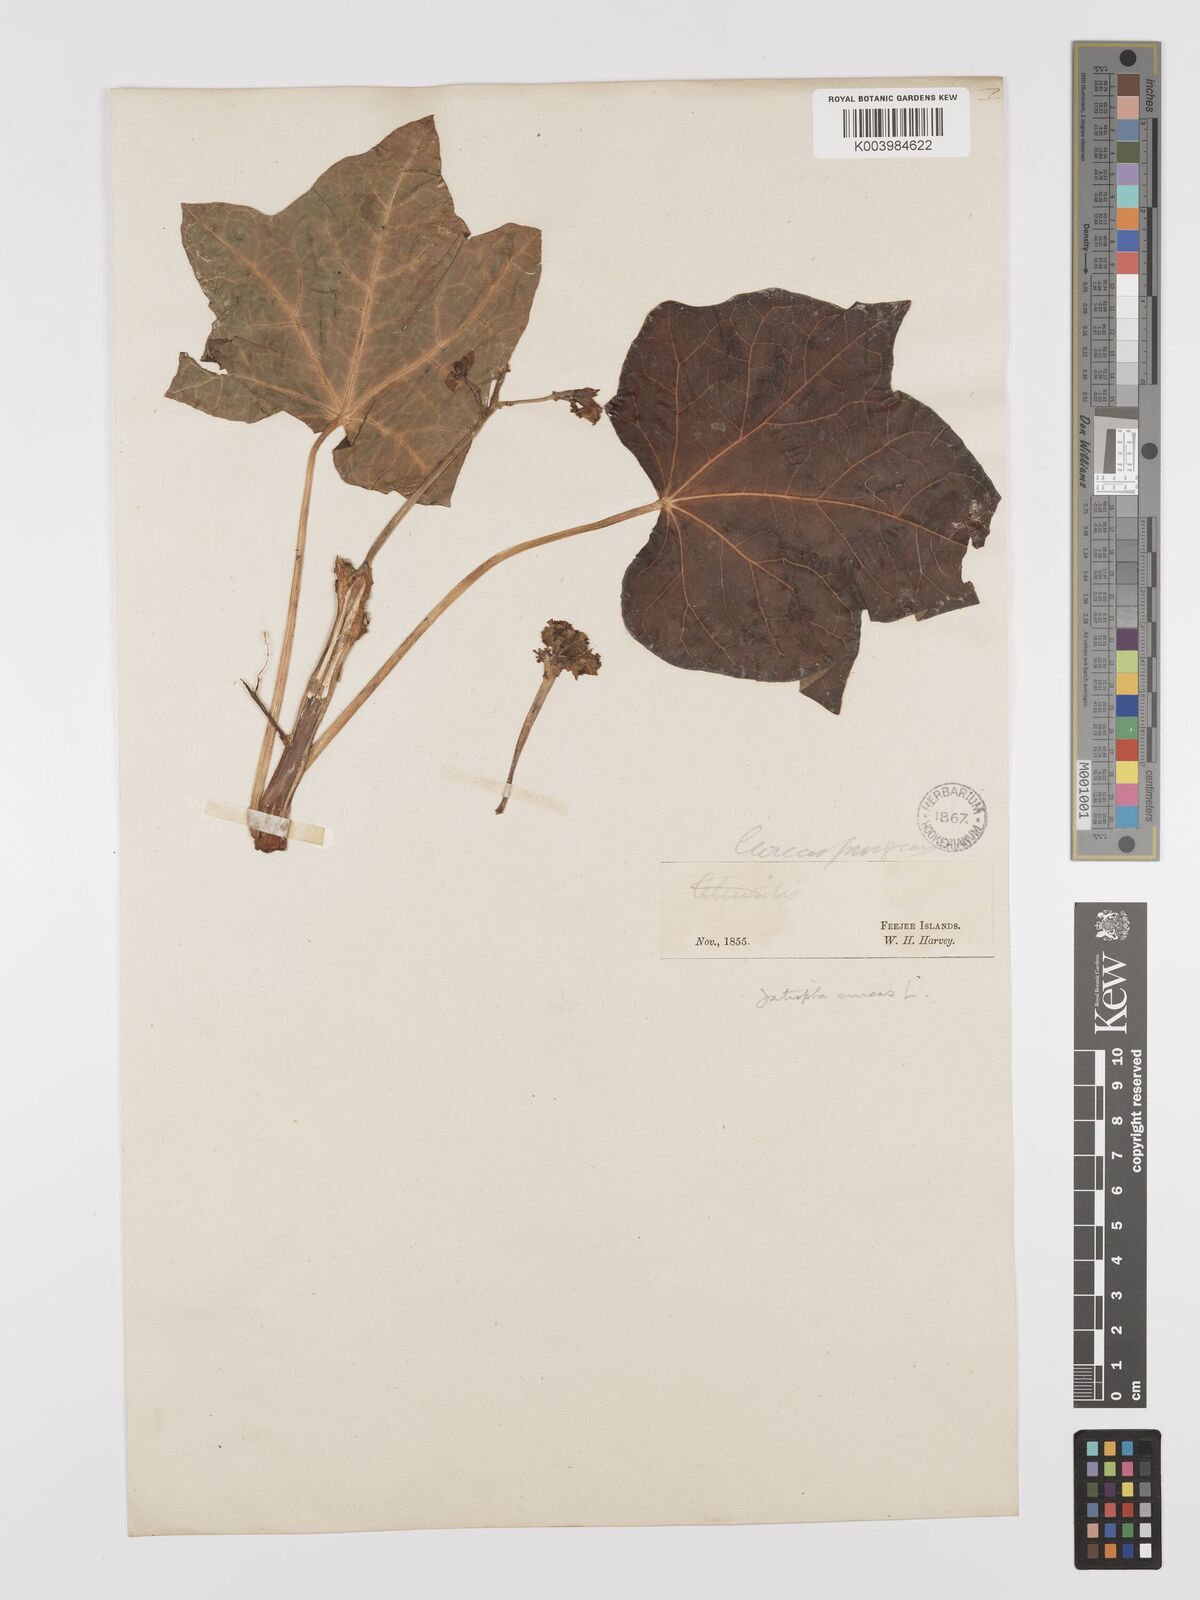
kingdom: Plantae
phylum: Tracheophyta
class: Magnoliopsida
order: Malpighiales
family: Euphorbiaceae
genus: Jatropha
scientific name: Jatropha curcas
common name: Barbados nut
